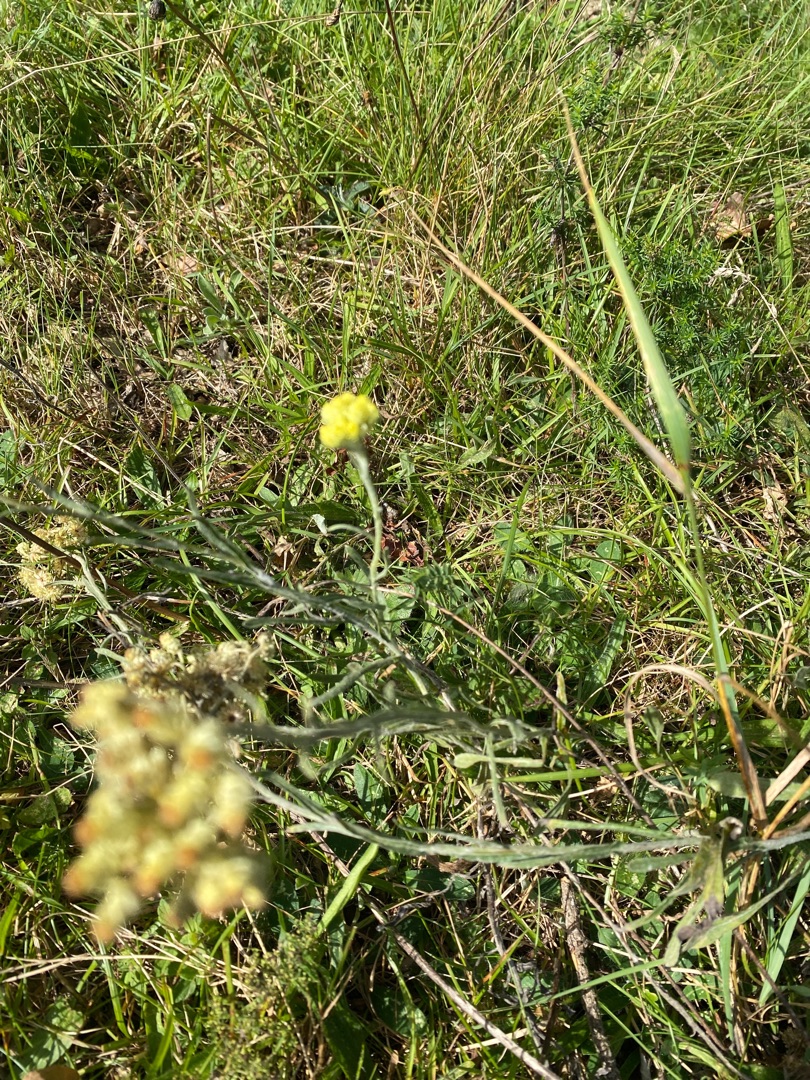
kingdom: Plantae
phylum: Tracheophyta
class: Magnoliopsida
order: Asterales
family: Asteraceae
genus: Helichrysum
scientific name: Helichrysum arenarium
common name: Gul evighedsblomst
